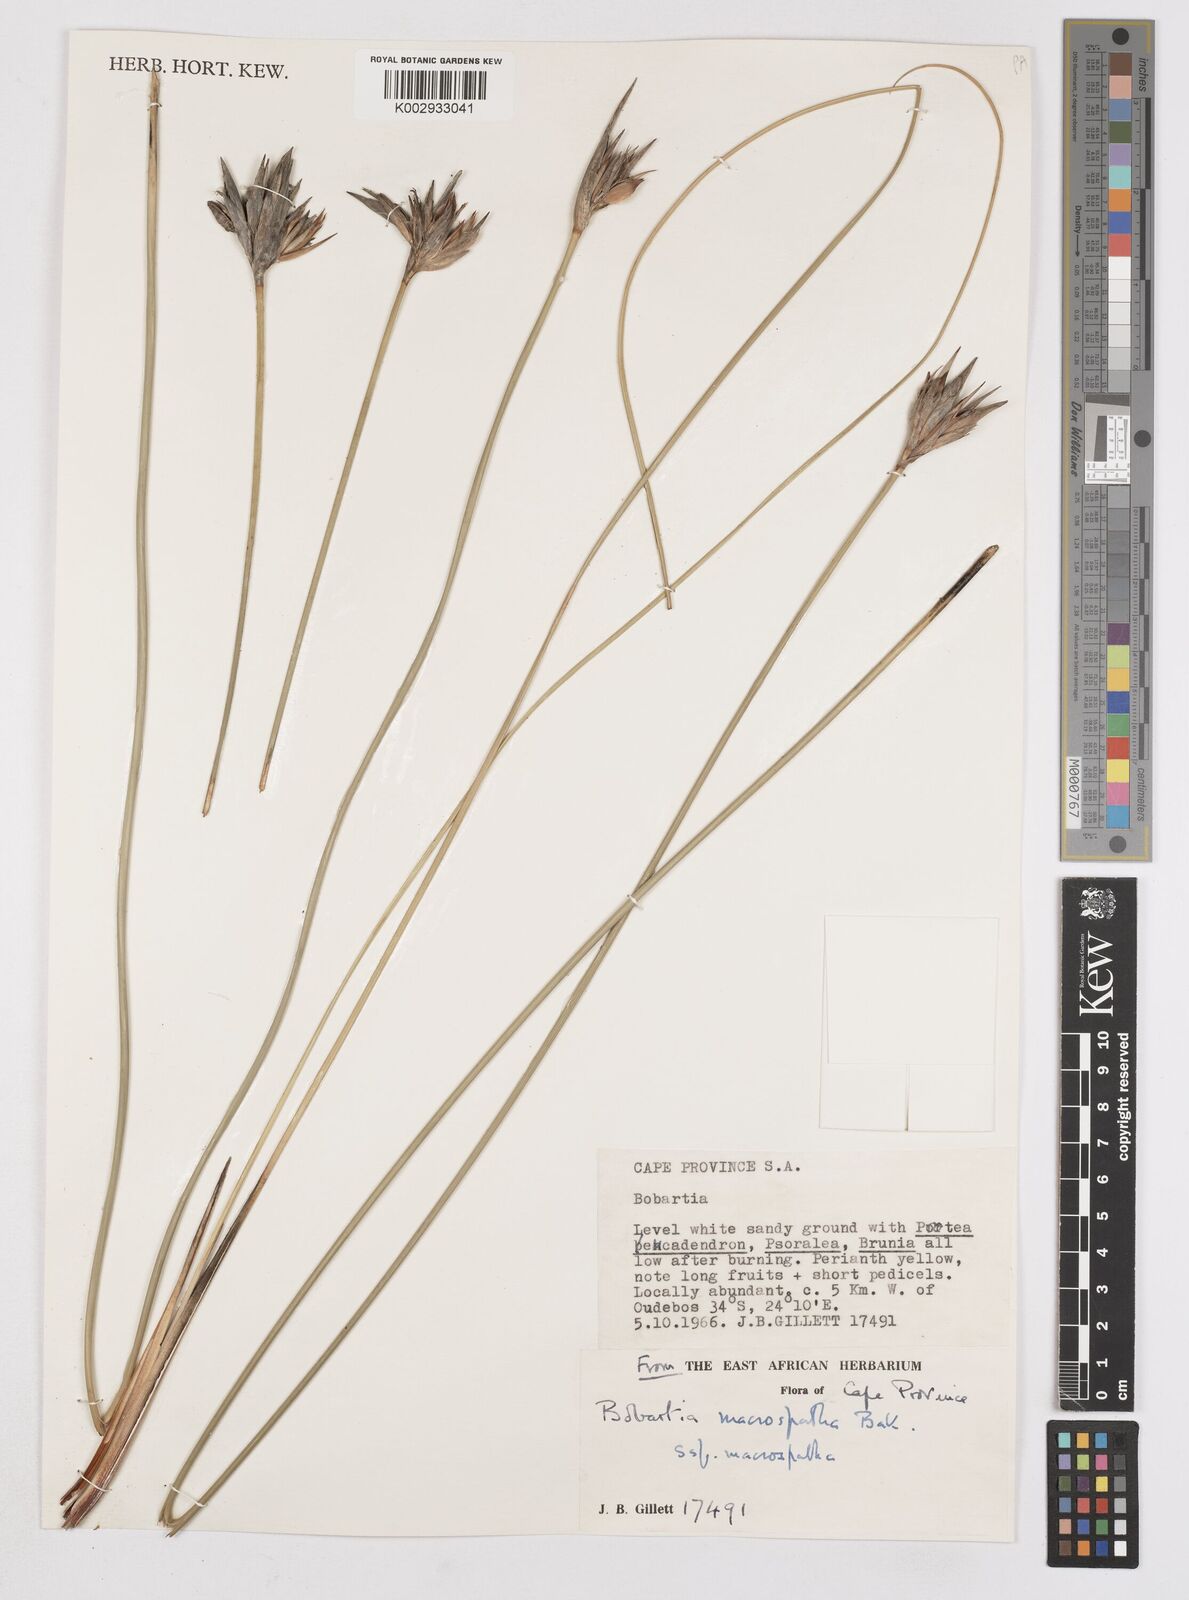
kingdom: Plantae
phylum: Tracheophyta
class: Liliopsida
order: Asparagales
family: Iridaceae
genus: Bobartia
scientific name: Bobartia macrospatha
